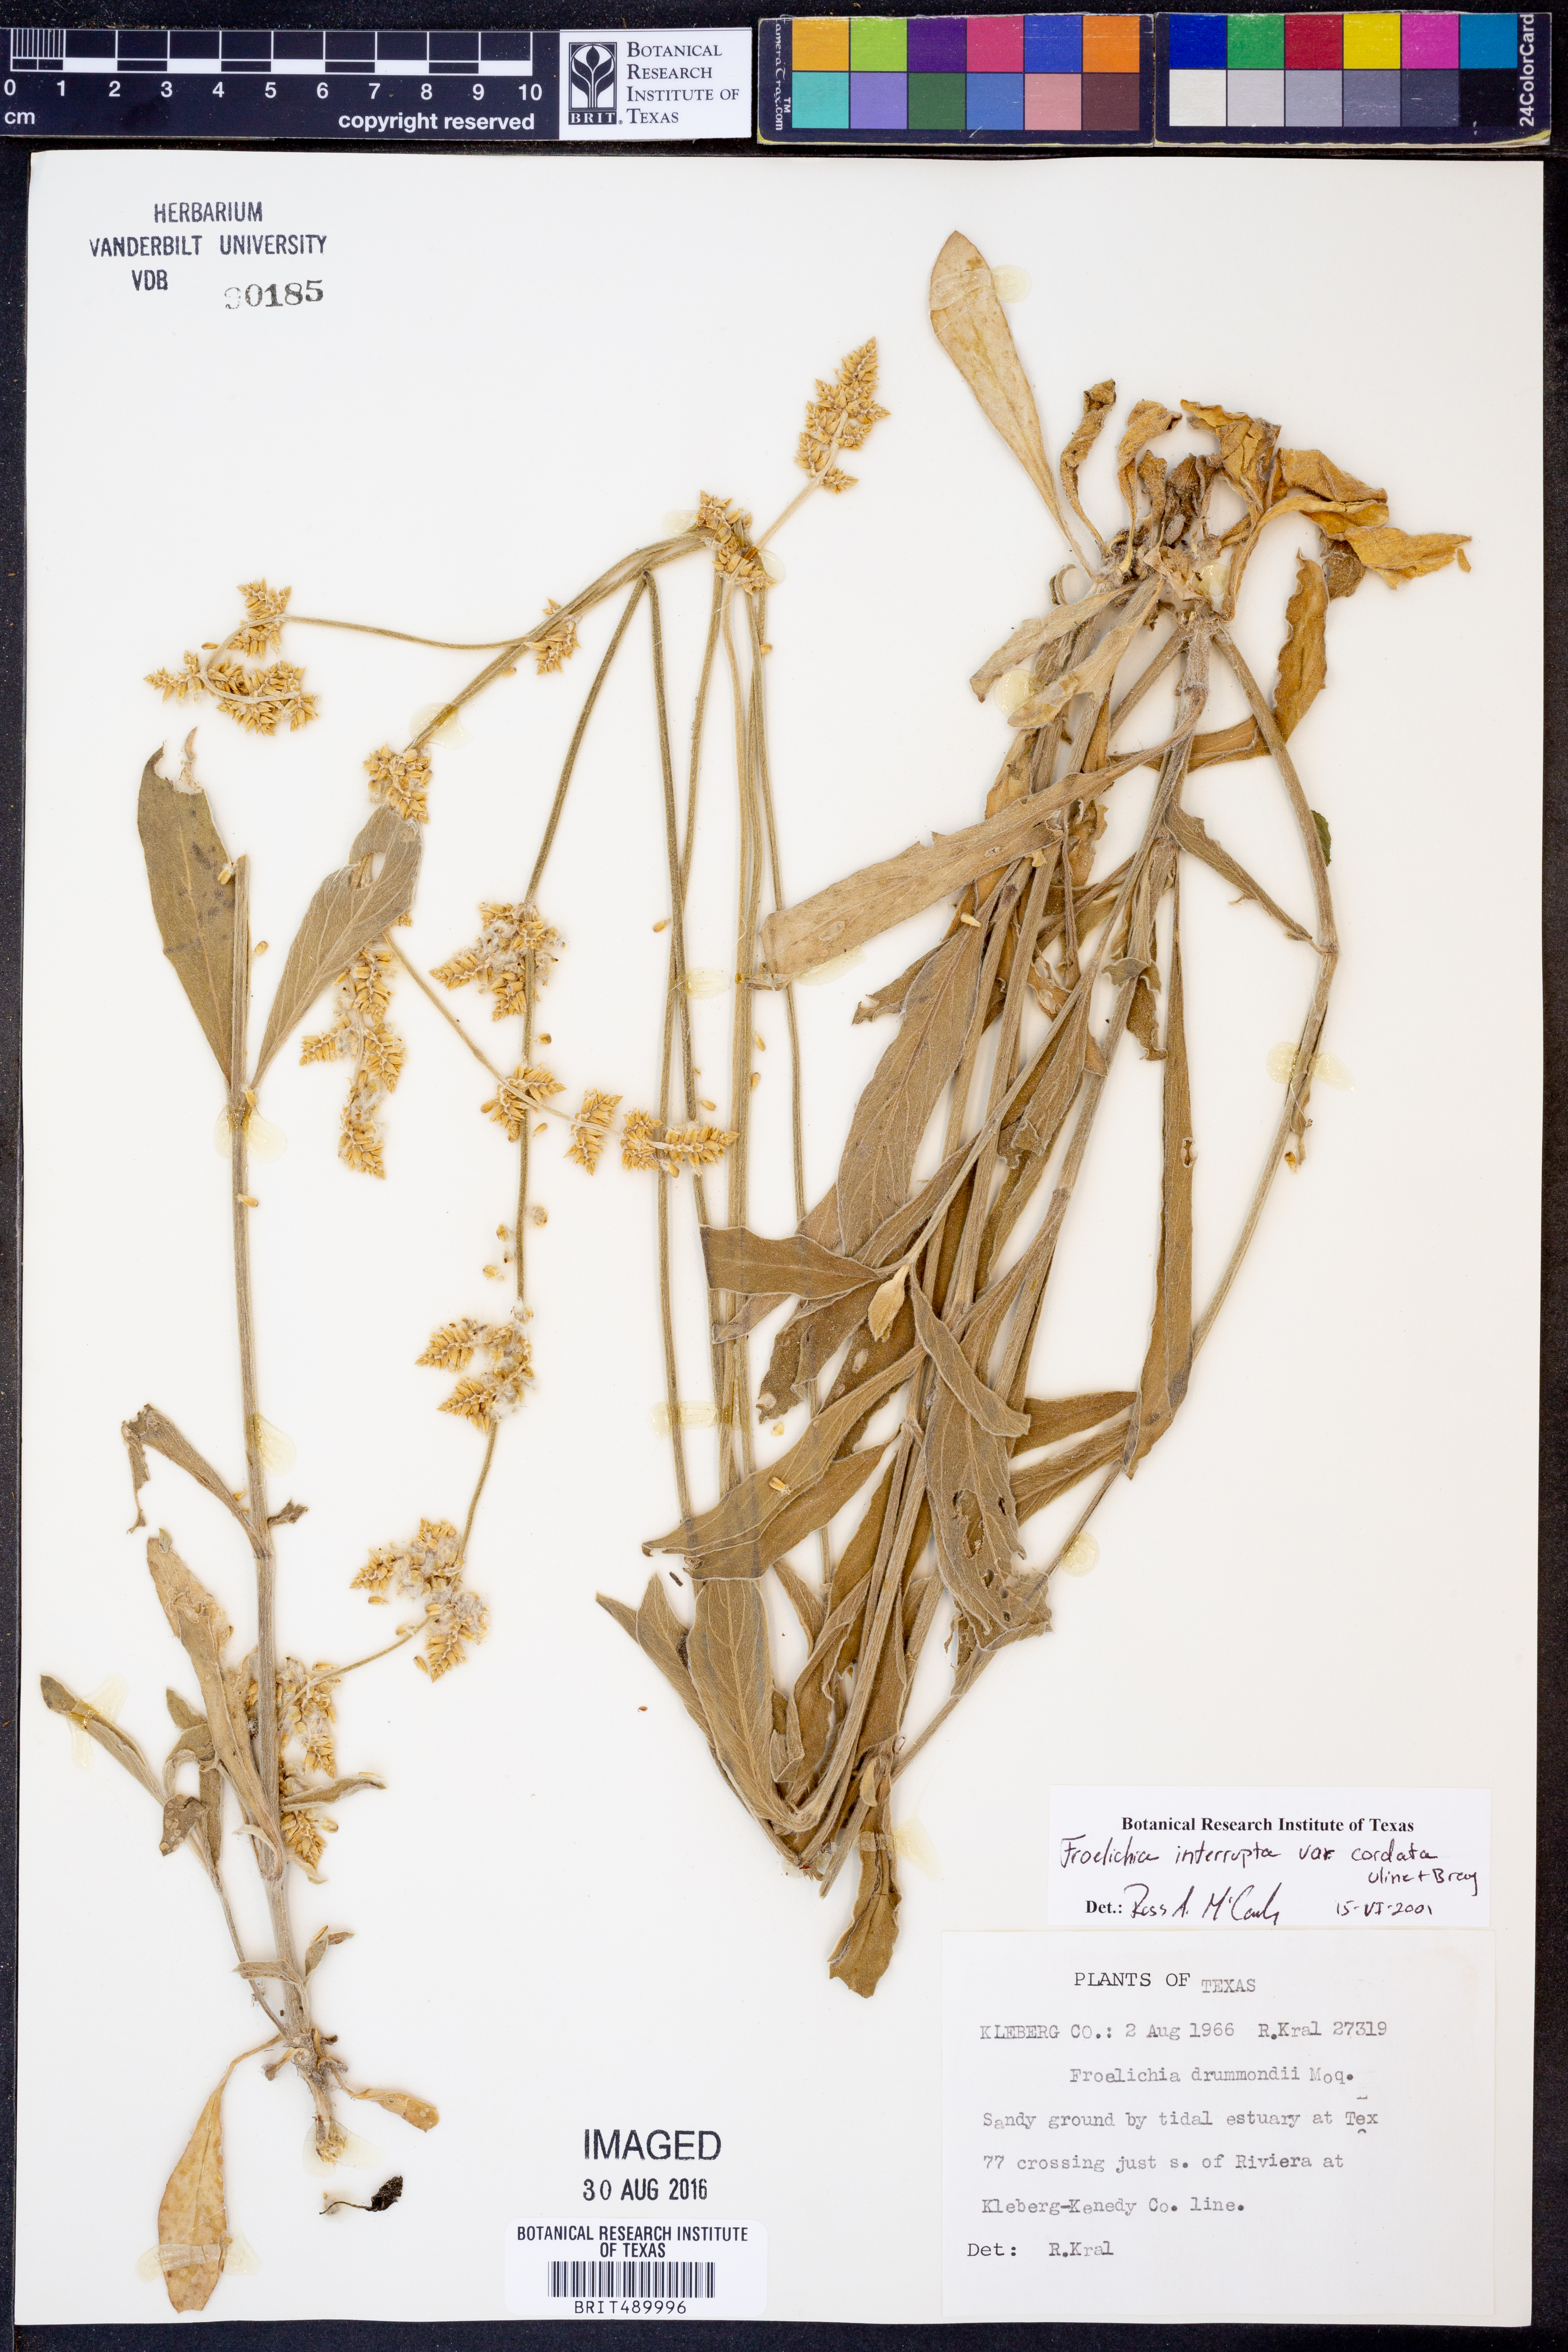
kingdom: Plantae
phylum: Tracheophyta
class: Magnoliopsida
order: Caryophyllales
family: Amaranthaceae
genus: Froelichia
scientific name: Froelichia texana
